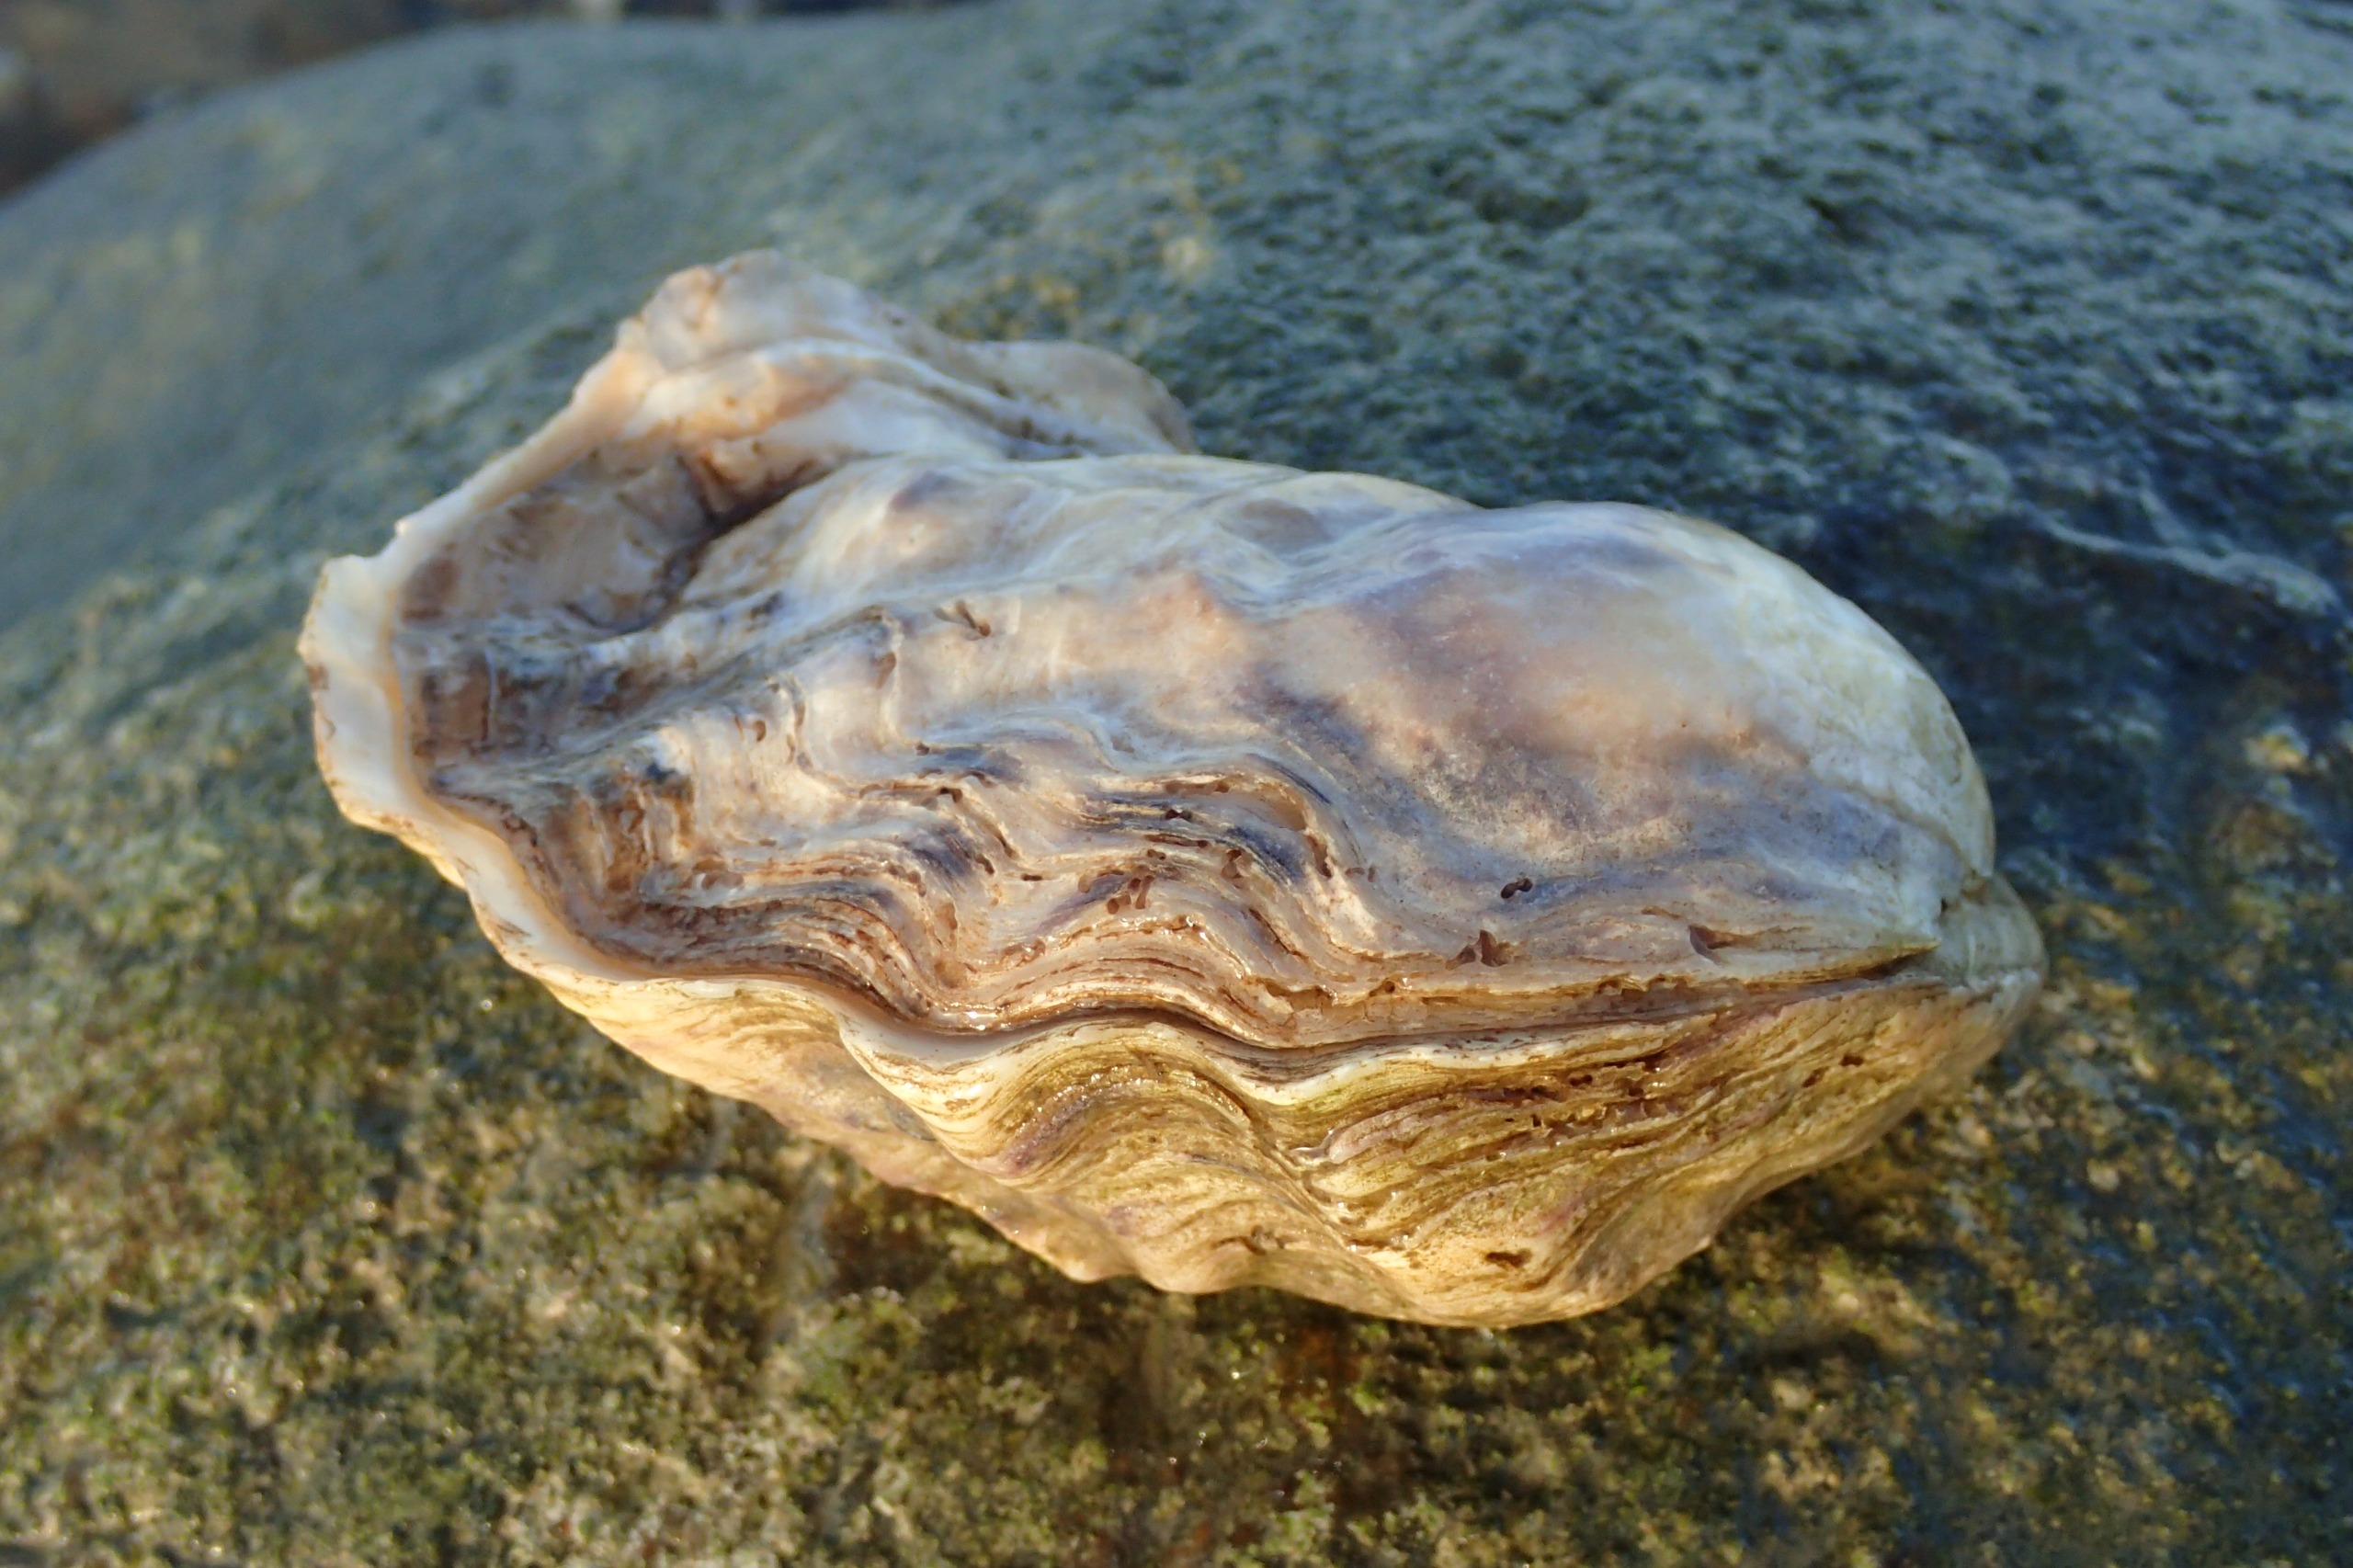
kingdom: Animalia
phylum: Mollusca
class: Bivalvia
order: Ostreida
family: Ostreidae
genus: Magallana
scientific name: Magallana gigas
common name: Stillehavsøsters
